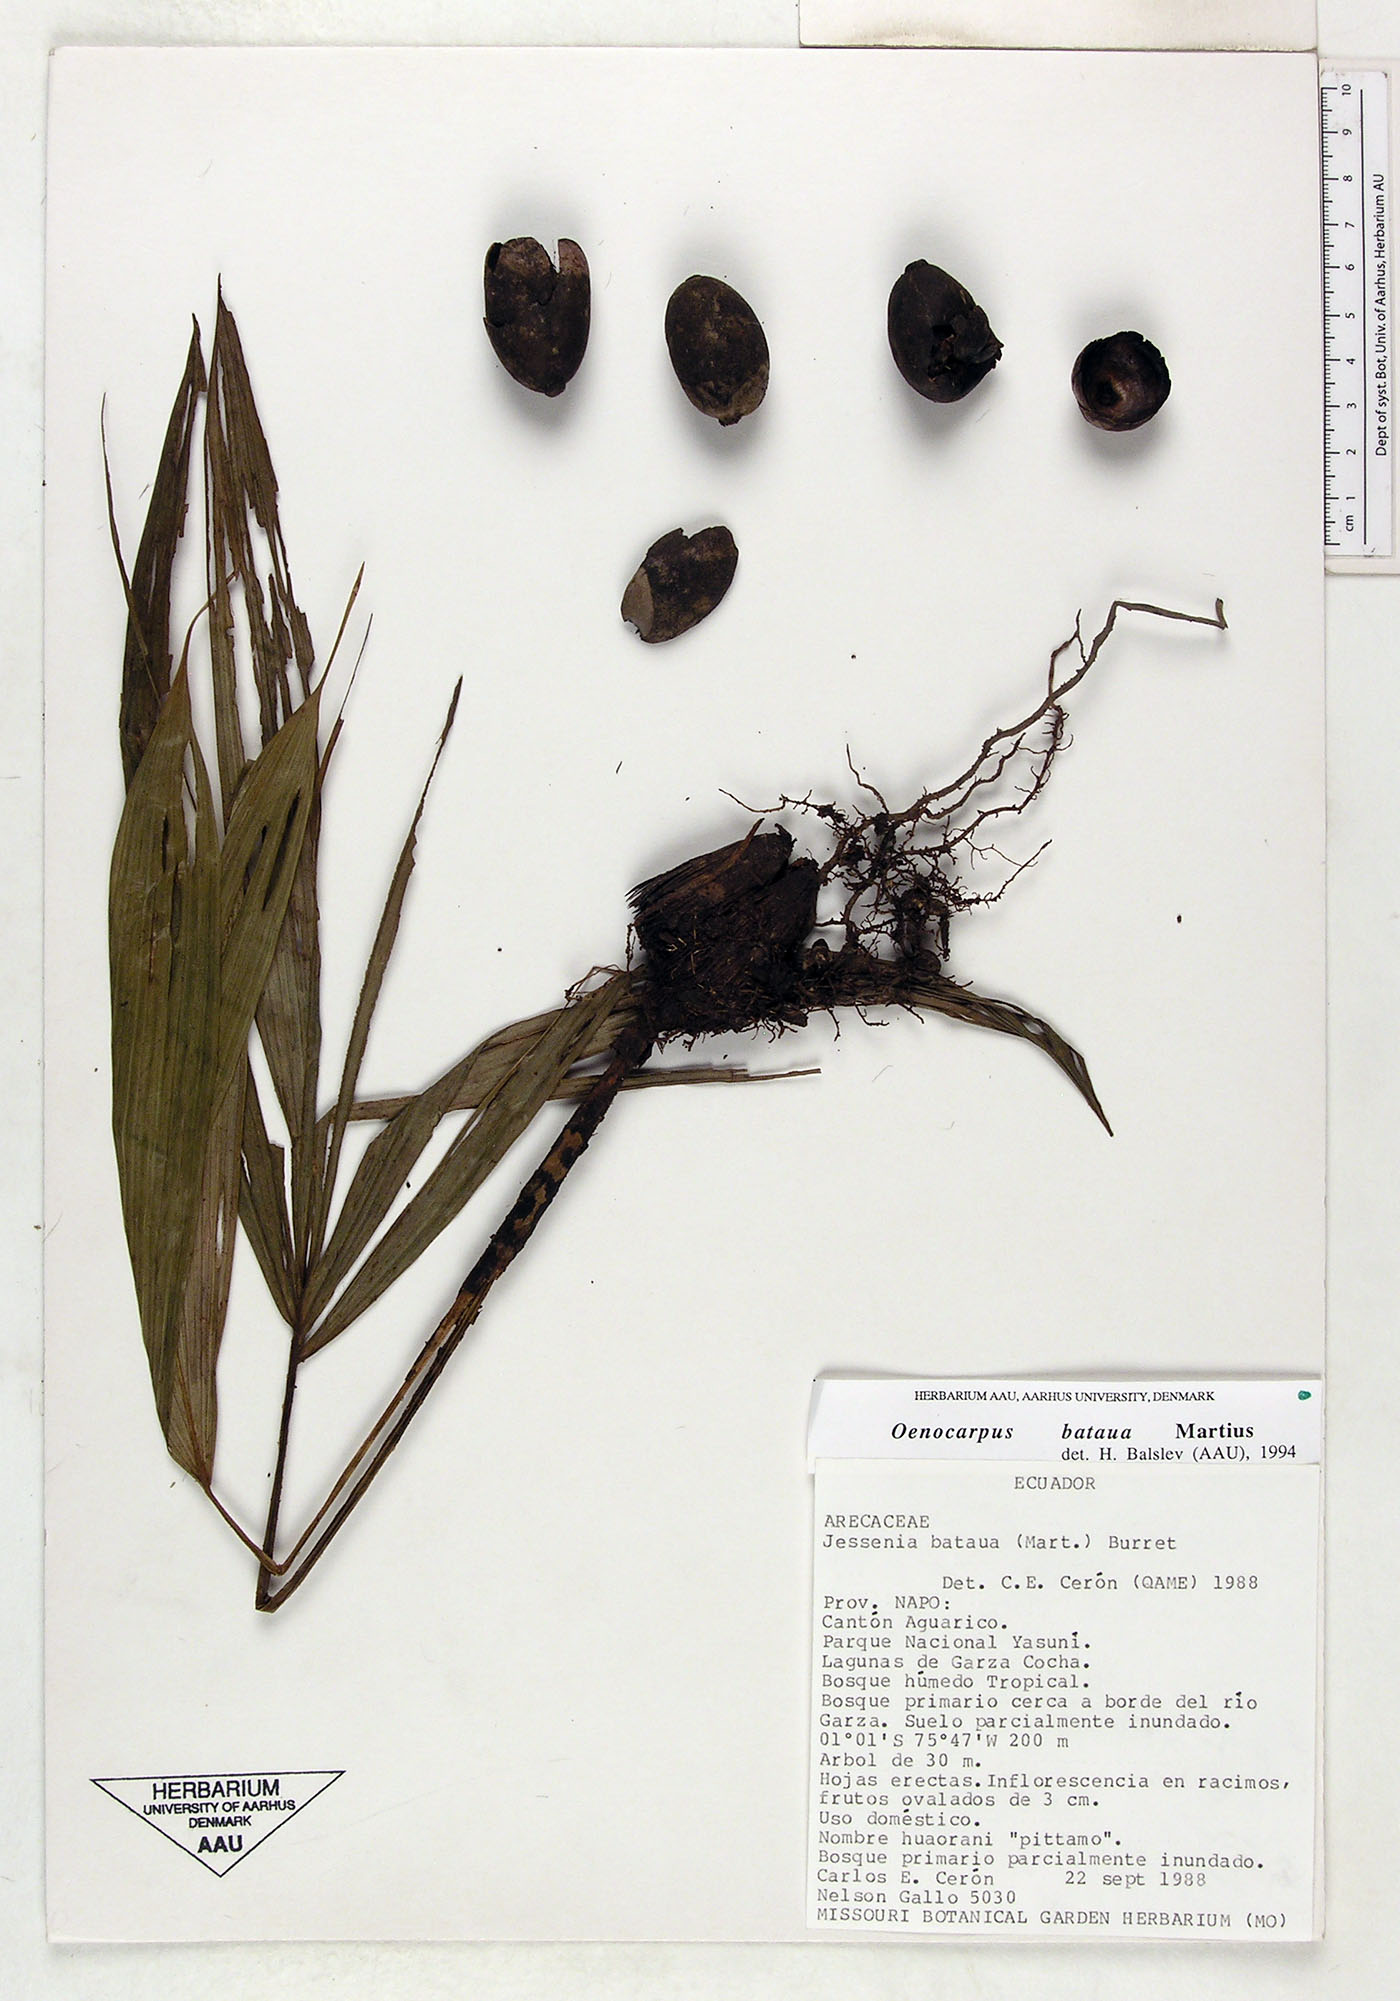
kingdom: Plantae
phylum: Tracheophyta
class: Liliopsida
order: Arecales
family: Arecaceae
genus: Oenocarpus
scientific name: Oenocarpus bataua
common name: Bataua palm
